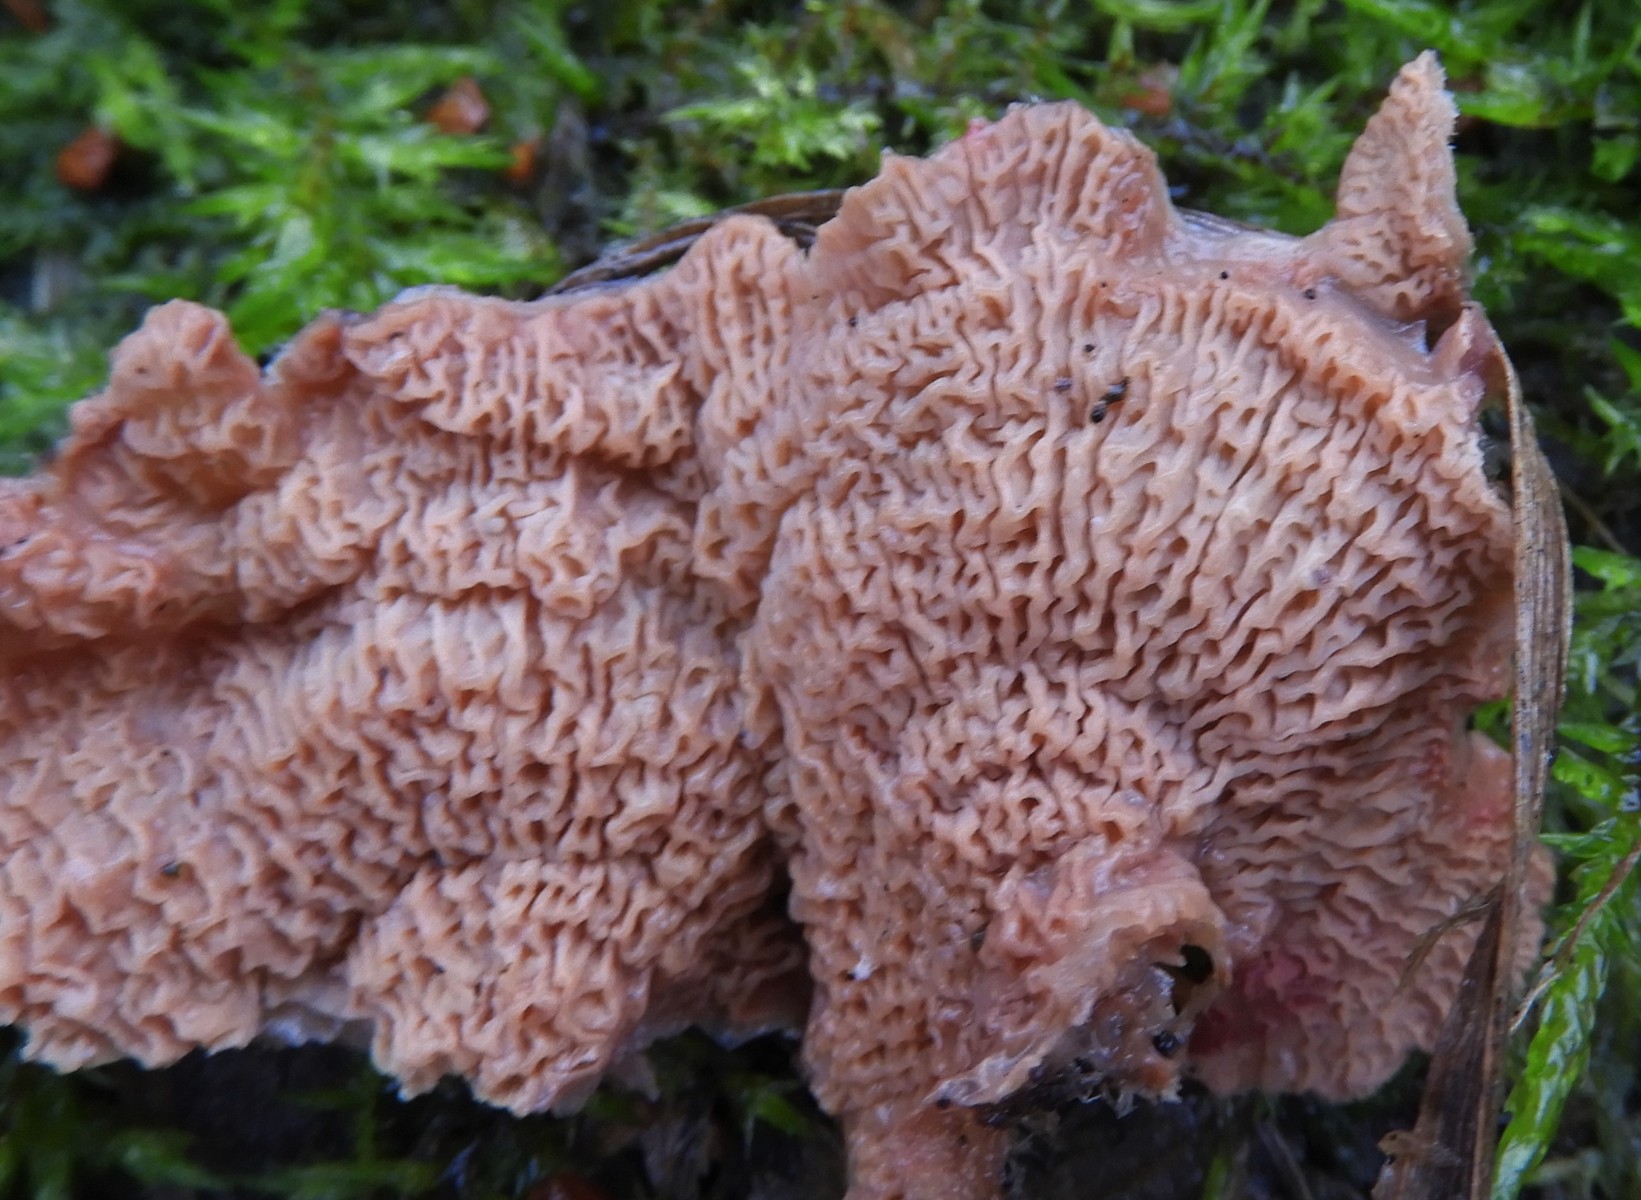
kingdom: Fungi
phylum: Basidiomycota
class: Agaricomycetes
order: Polyporales
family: Meruliaceae
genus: Phlebia
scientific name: Phlebia tremellosa
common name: bævrende åresvamp
